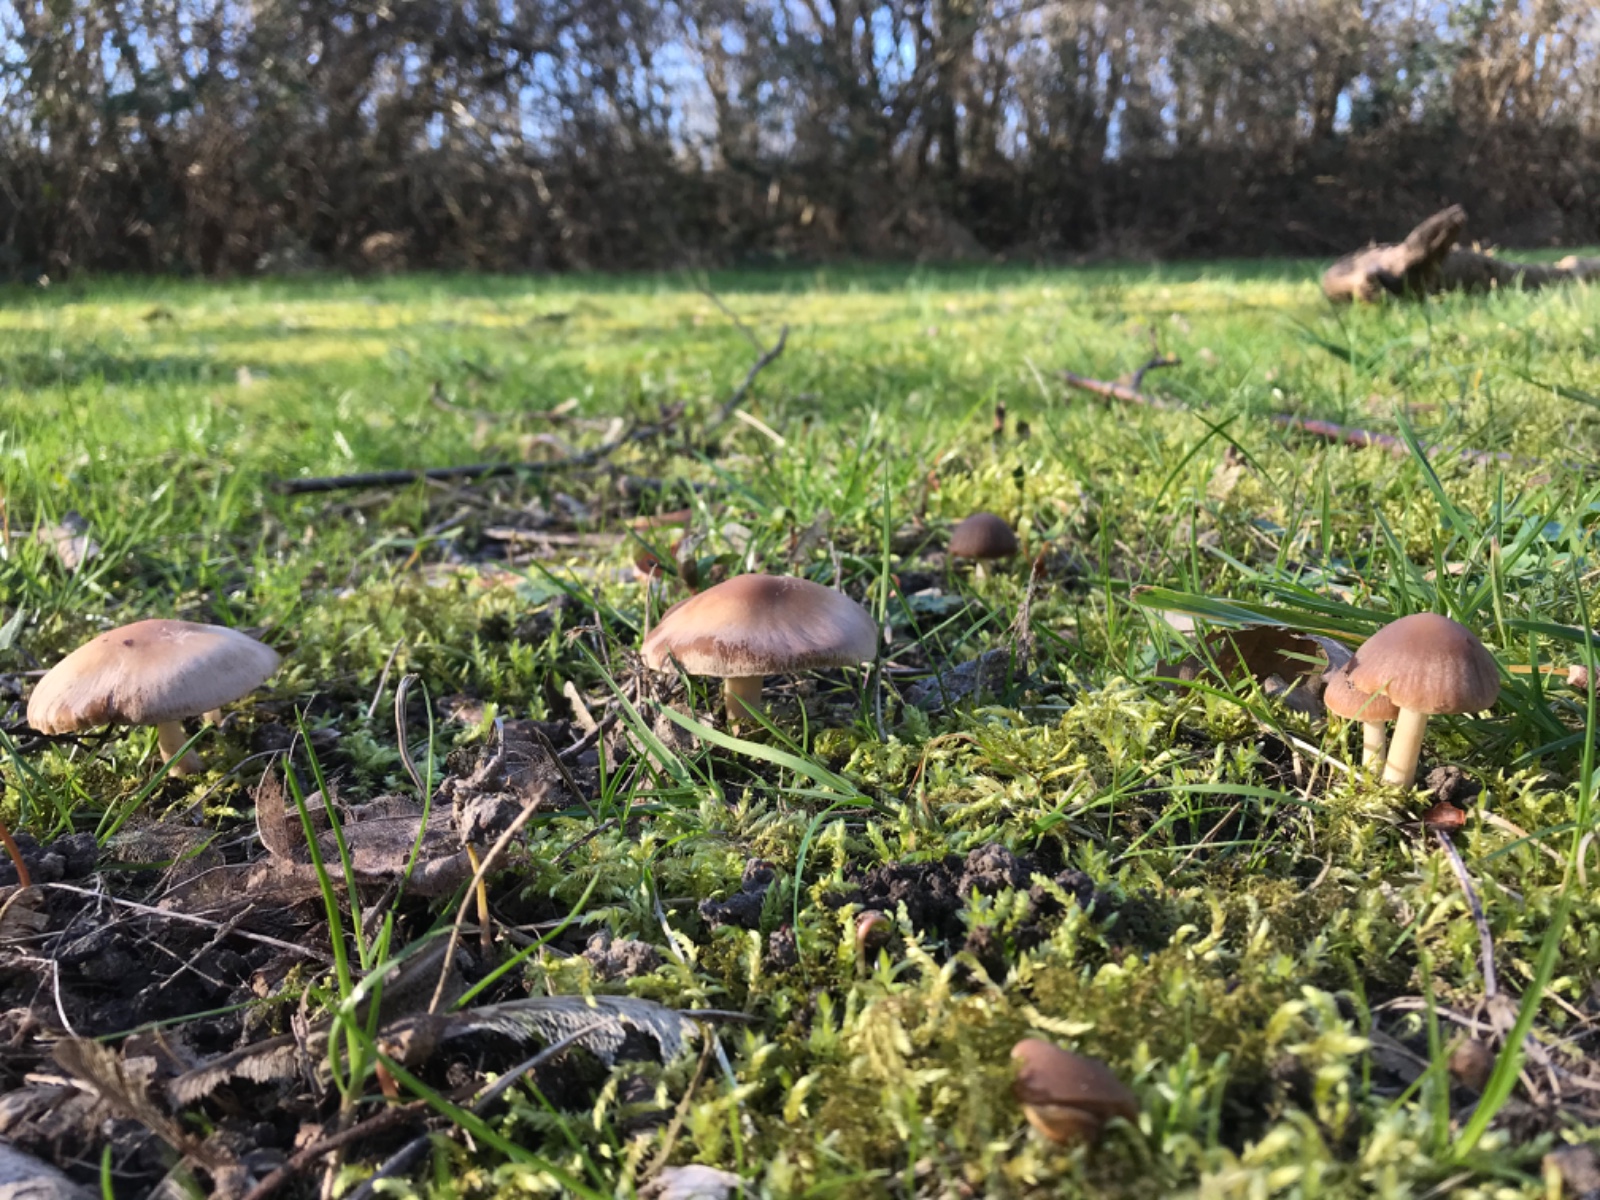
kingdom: Fungi
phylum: Basidiomycota
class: Agaricomycetes
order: Agaricales
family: Psathyrellaceae
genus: Psathyrella
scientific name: Psathyrella spadiceogrisea
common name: gråbrun mørkhat
